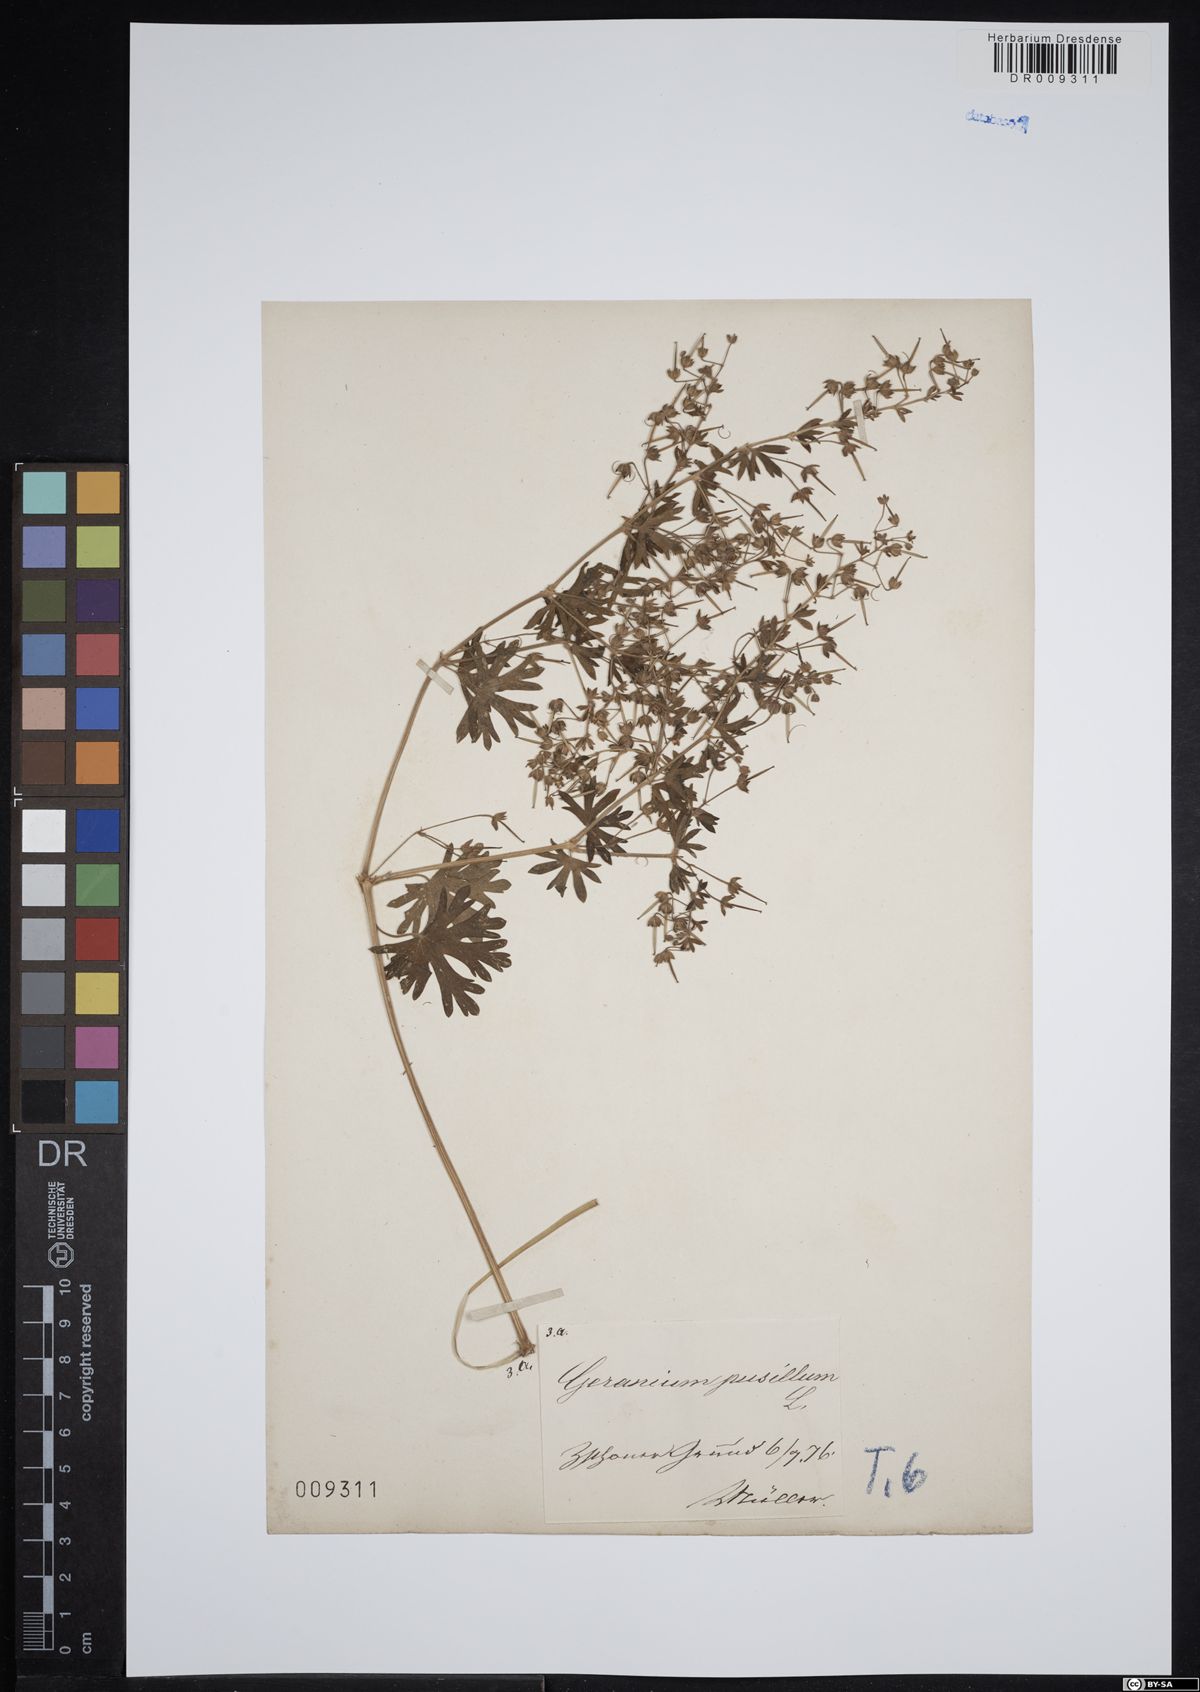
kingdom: Plantae
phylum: Tracheophyta
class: Magnoliopsida
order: Geraniales
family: Geraniaceae
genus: Geranium
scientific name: Geranium pusillum
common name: Small geranium
